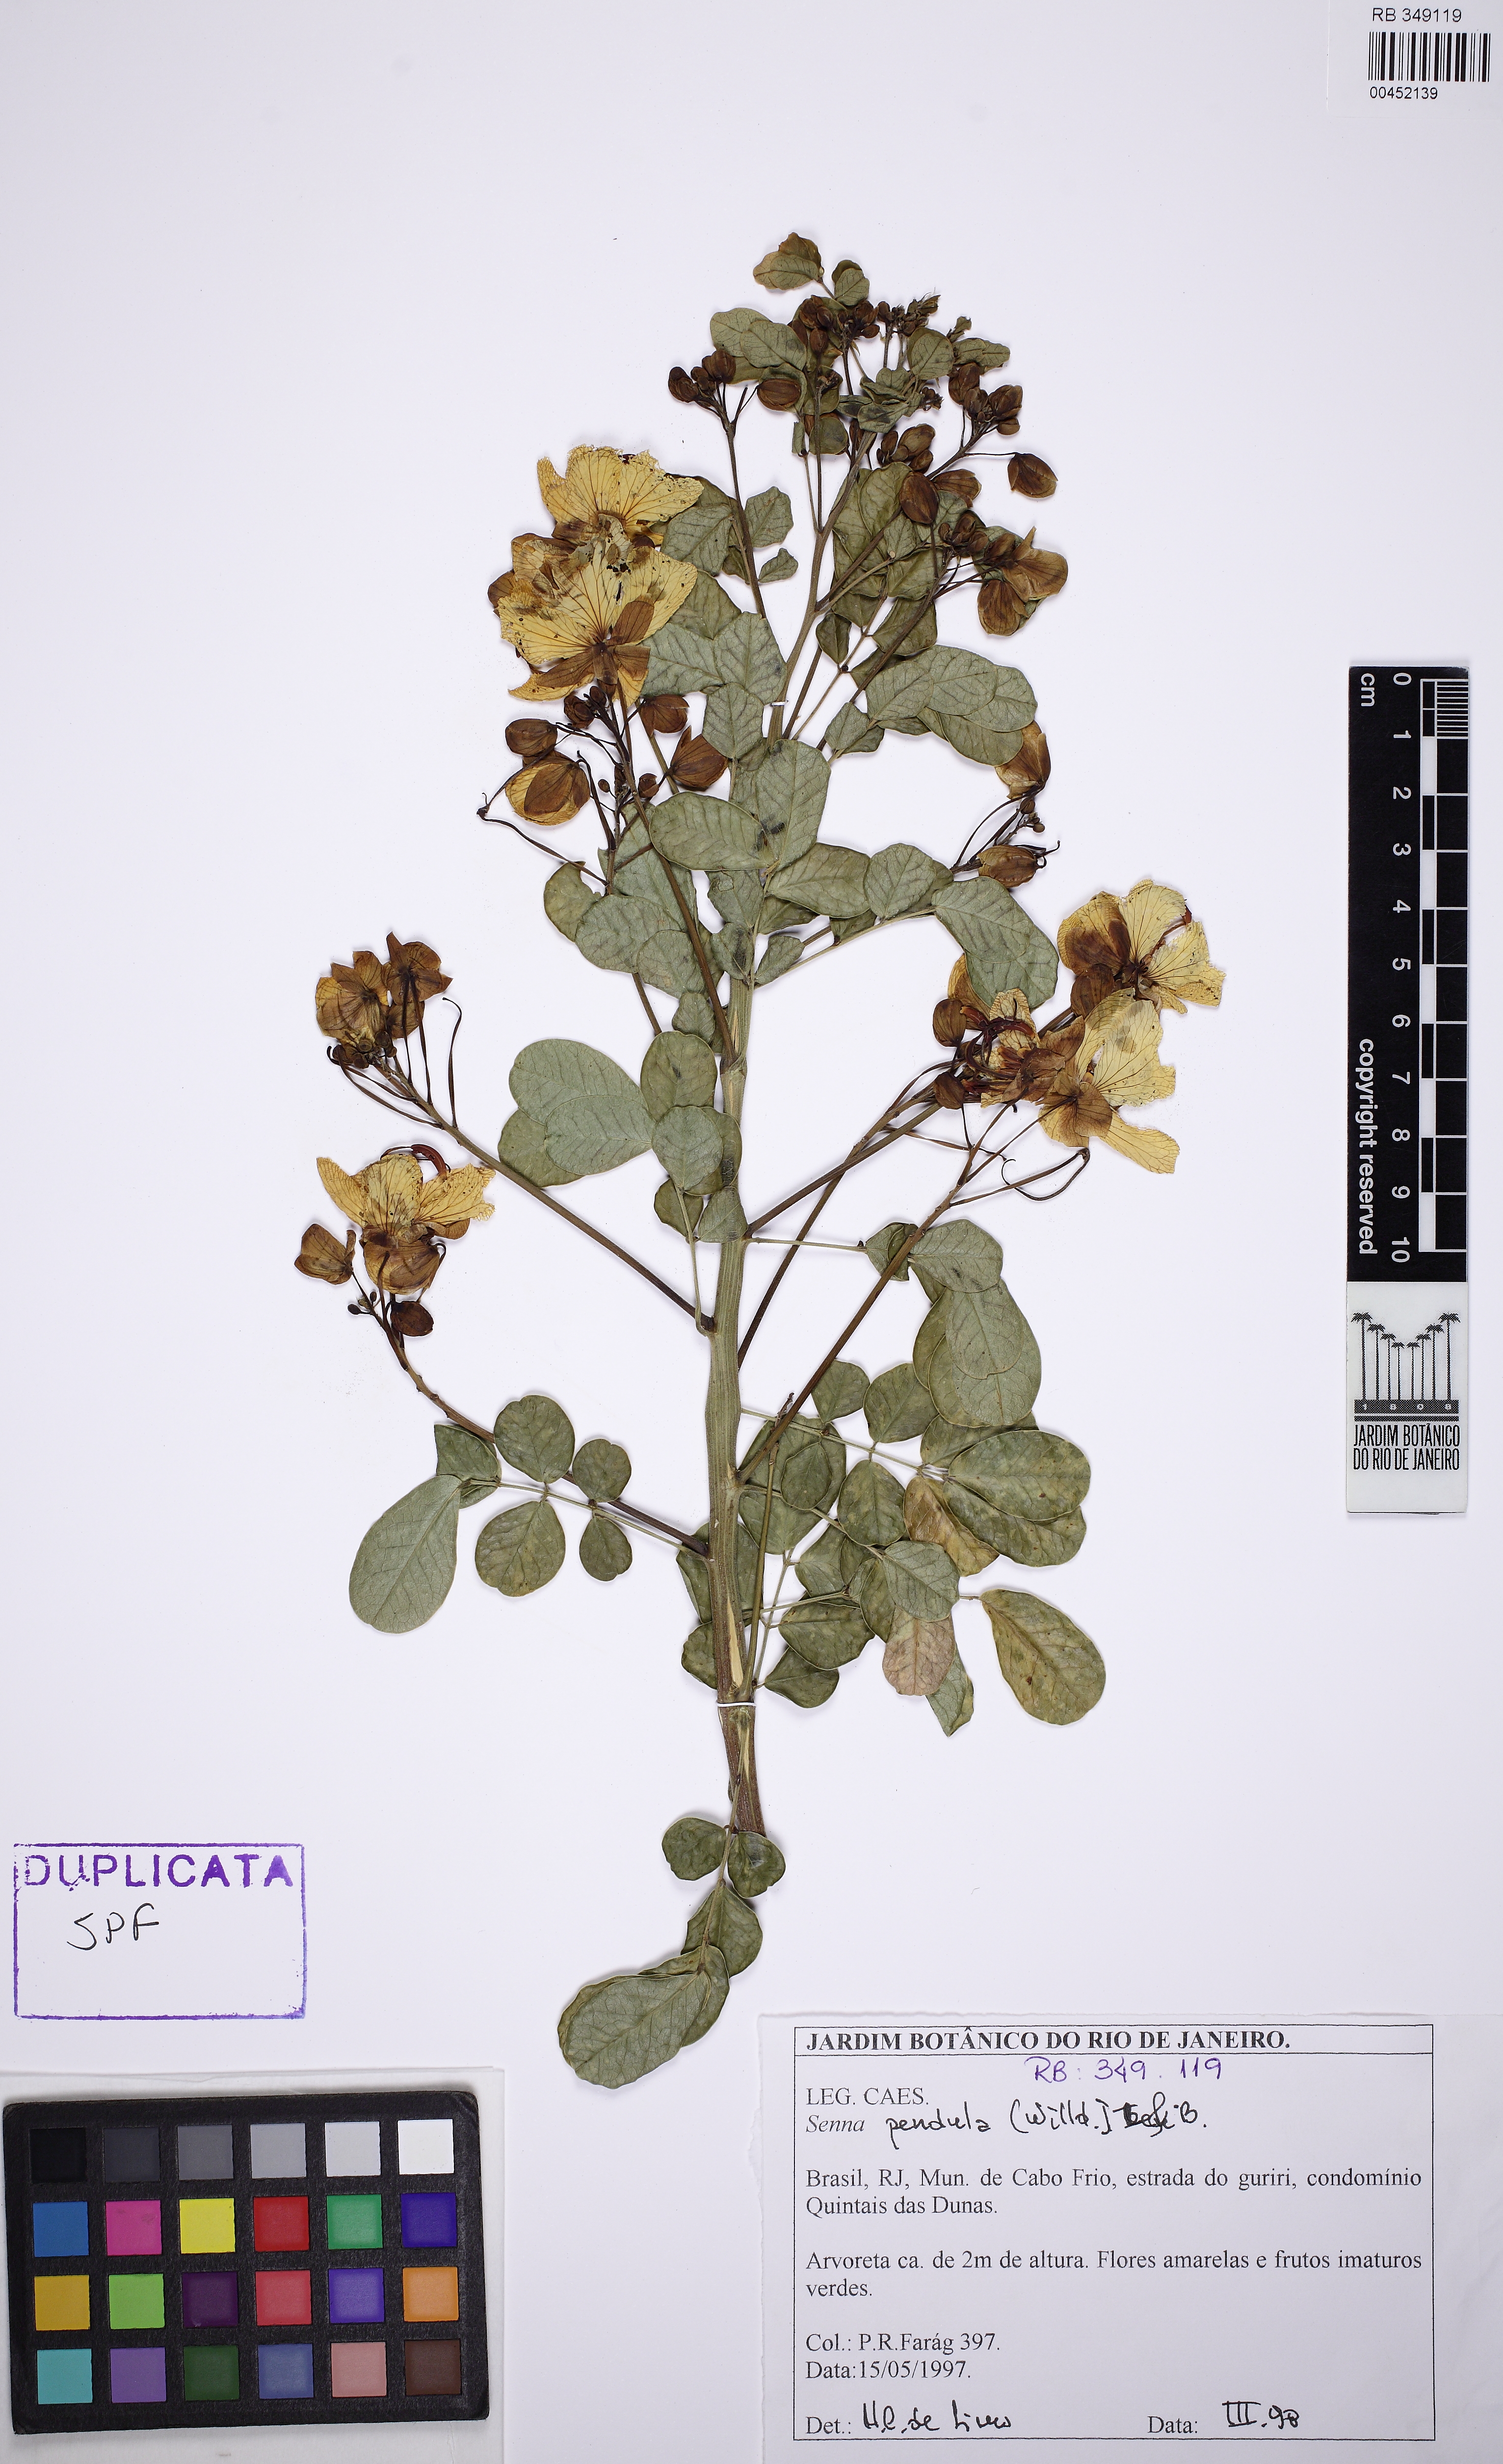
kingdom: Plantae
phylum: Tracheophyta
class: Magnoliopsida
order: Fabales
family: Fabaceae
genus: Senna
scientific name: Senna pendula
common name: Easter cassia
